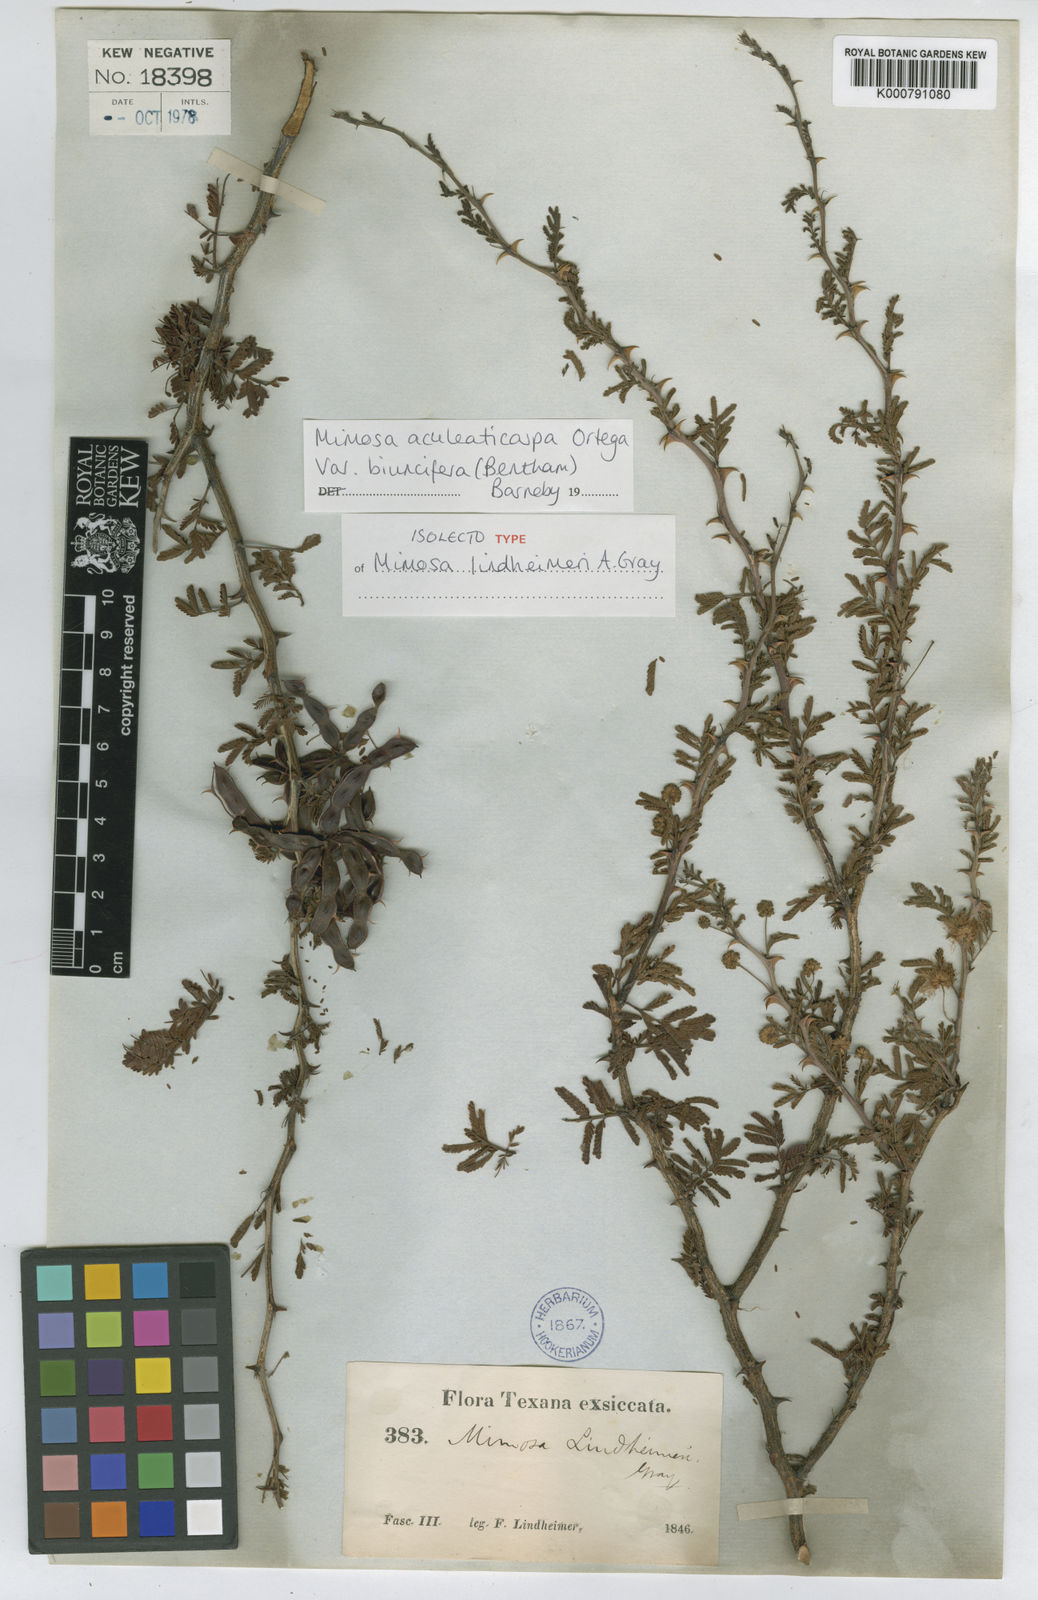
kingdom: Plantae
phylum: Tracheophyta
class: Magnoliopsida
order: Fabales
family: Fabaceae
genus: Mimosa
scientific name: Mimosa biuncifera
